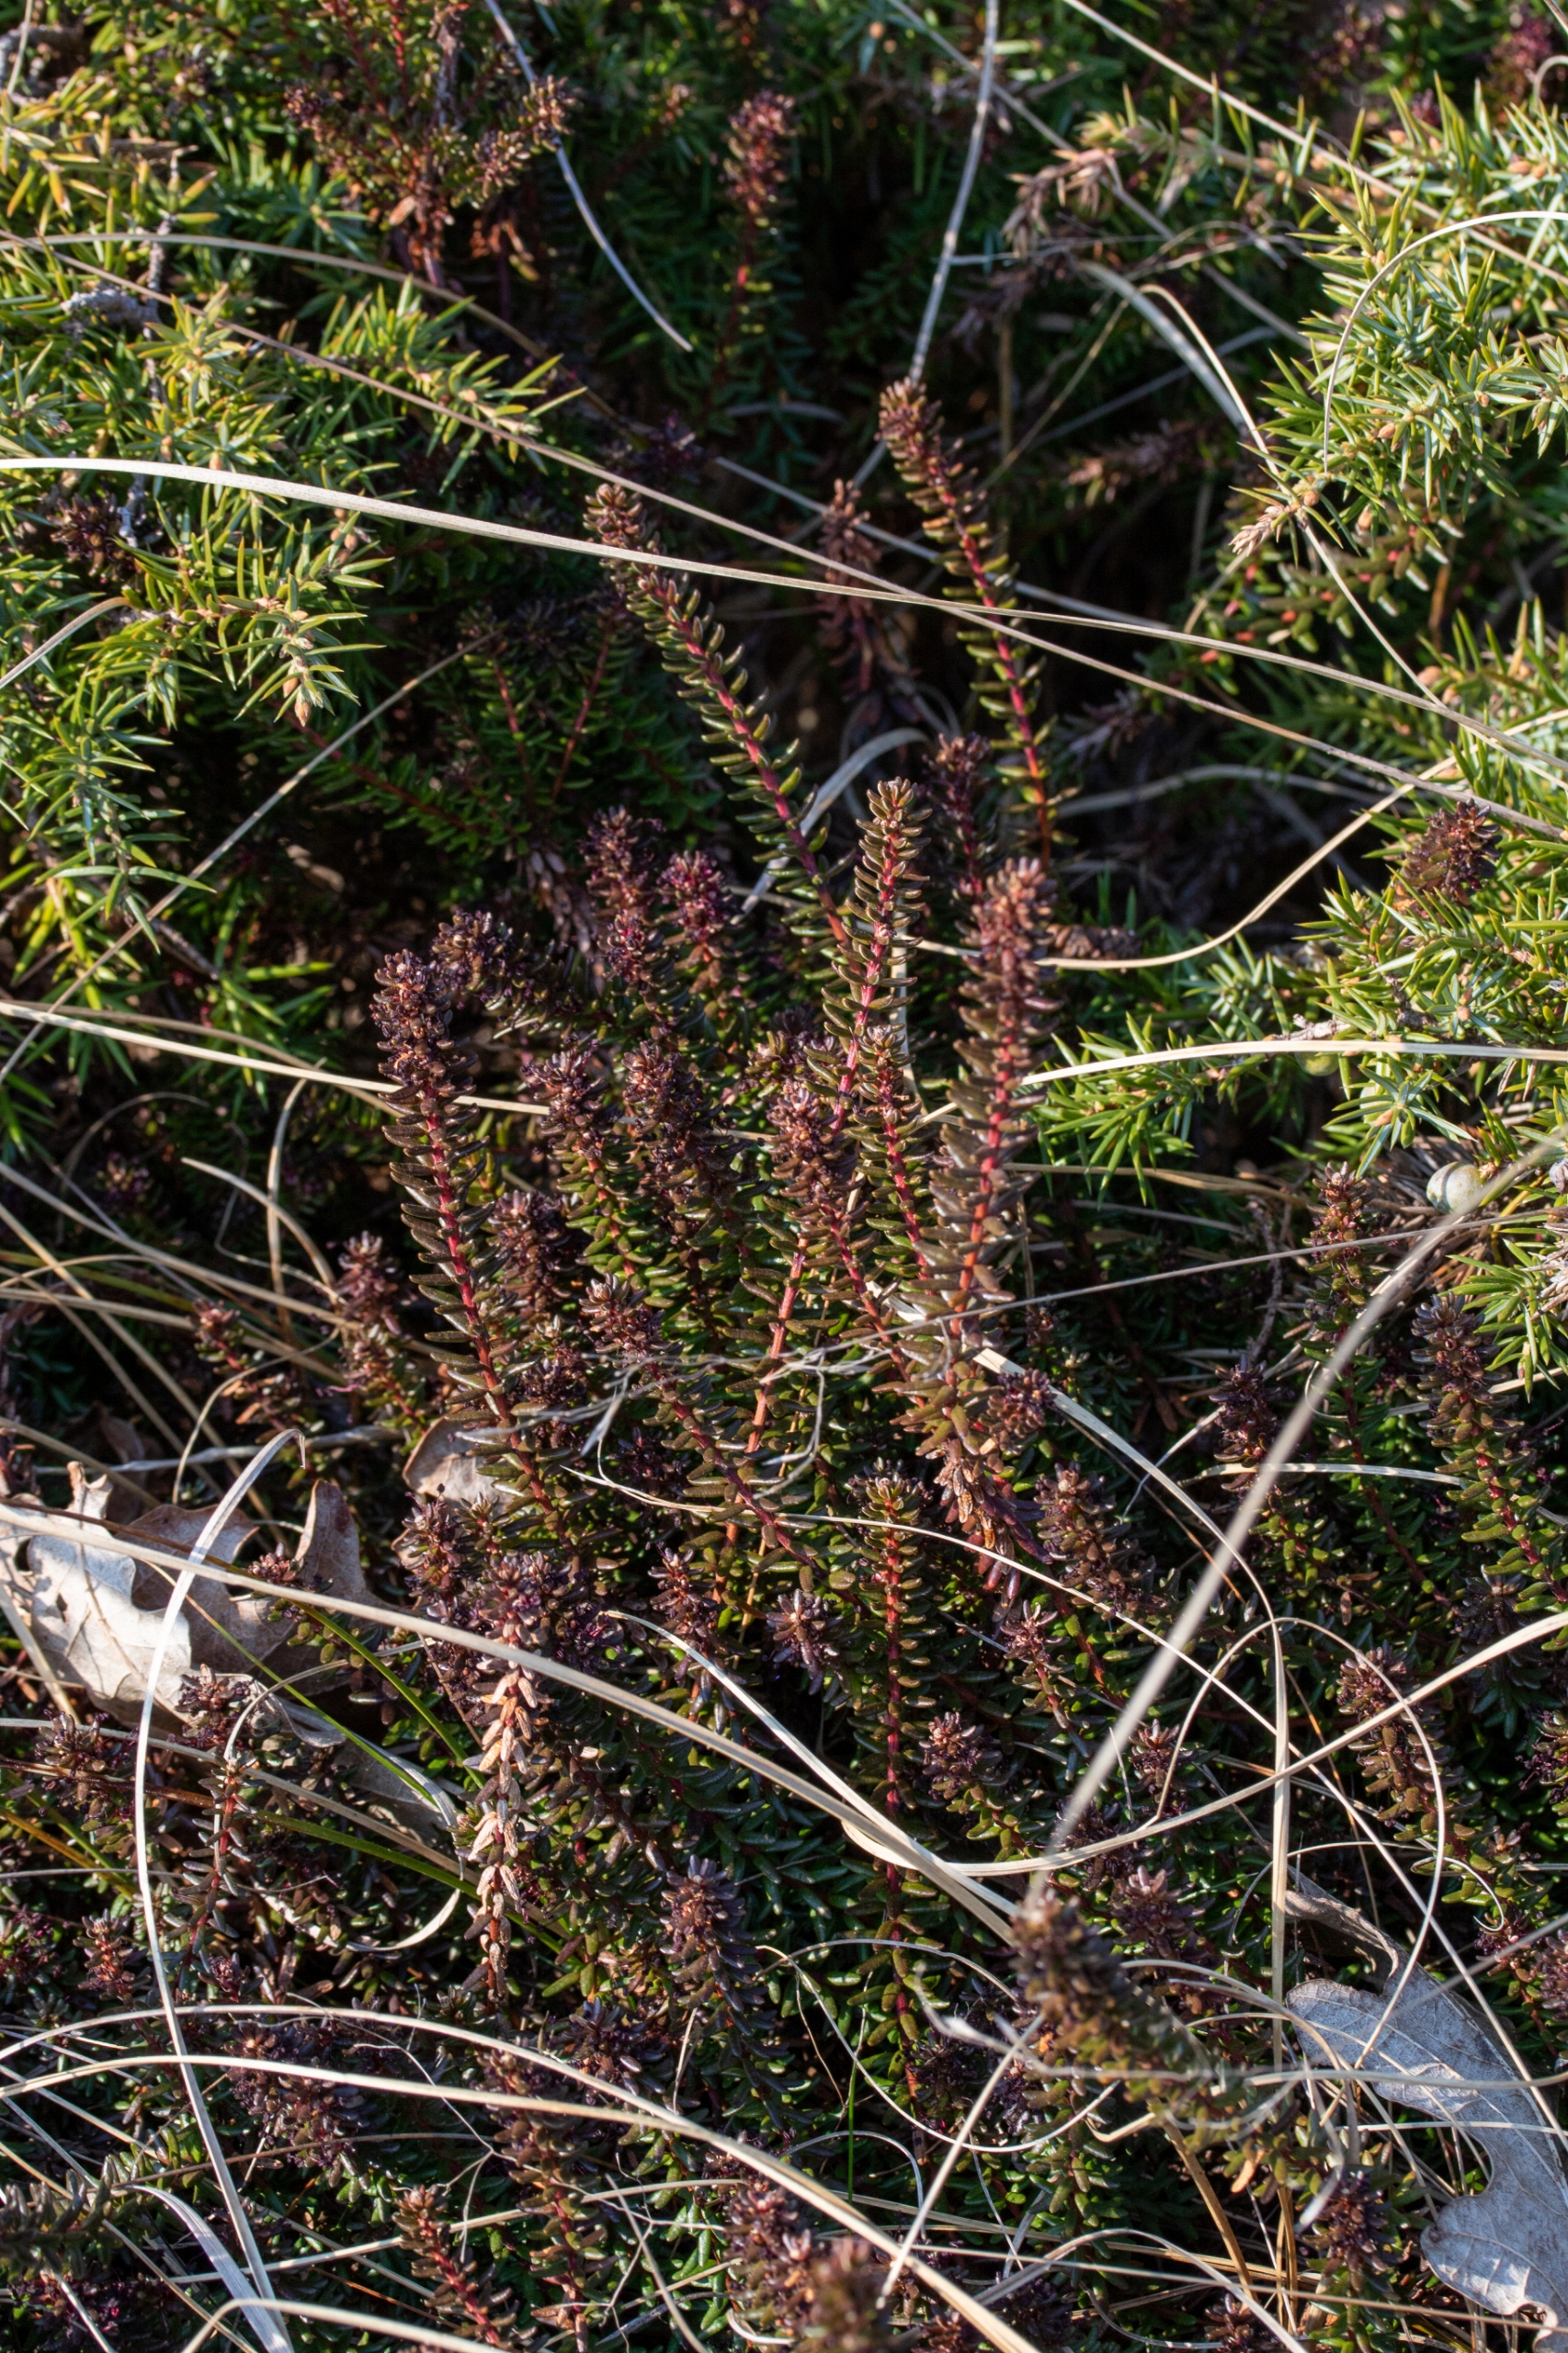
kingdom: Plantae
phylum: Tracheophyta
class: Magnoliopsida
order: Ericales
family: Ericaceae
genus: Empetrum
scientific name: Empetrum nigrum
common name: Revling
